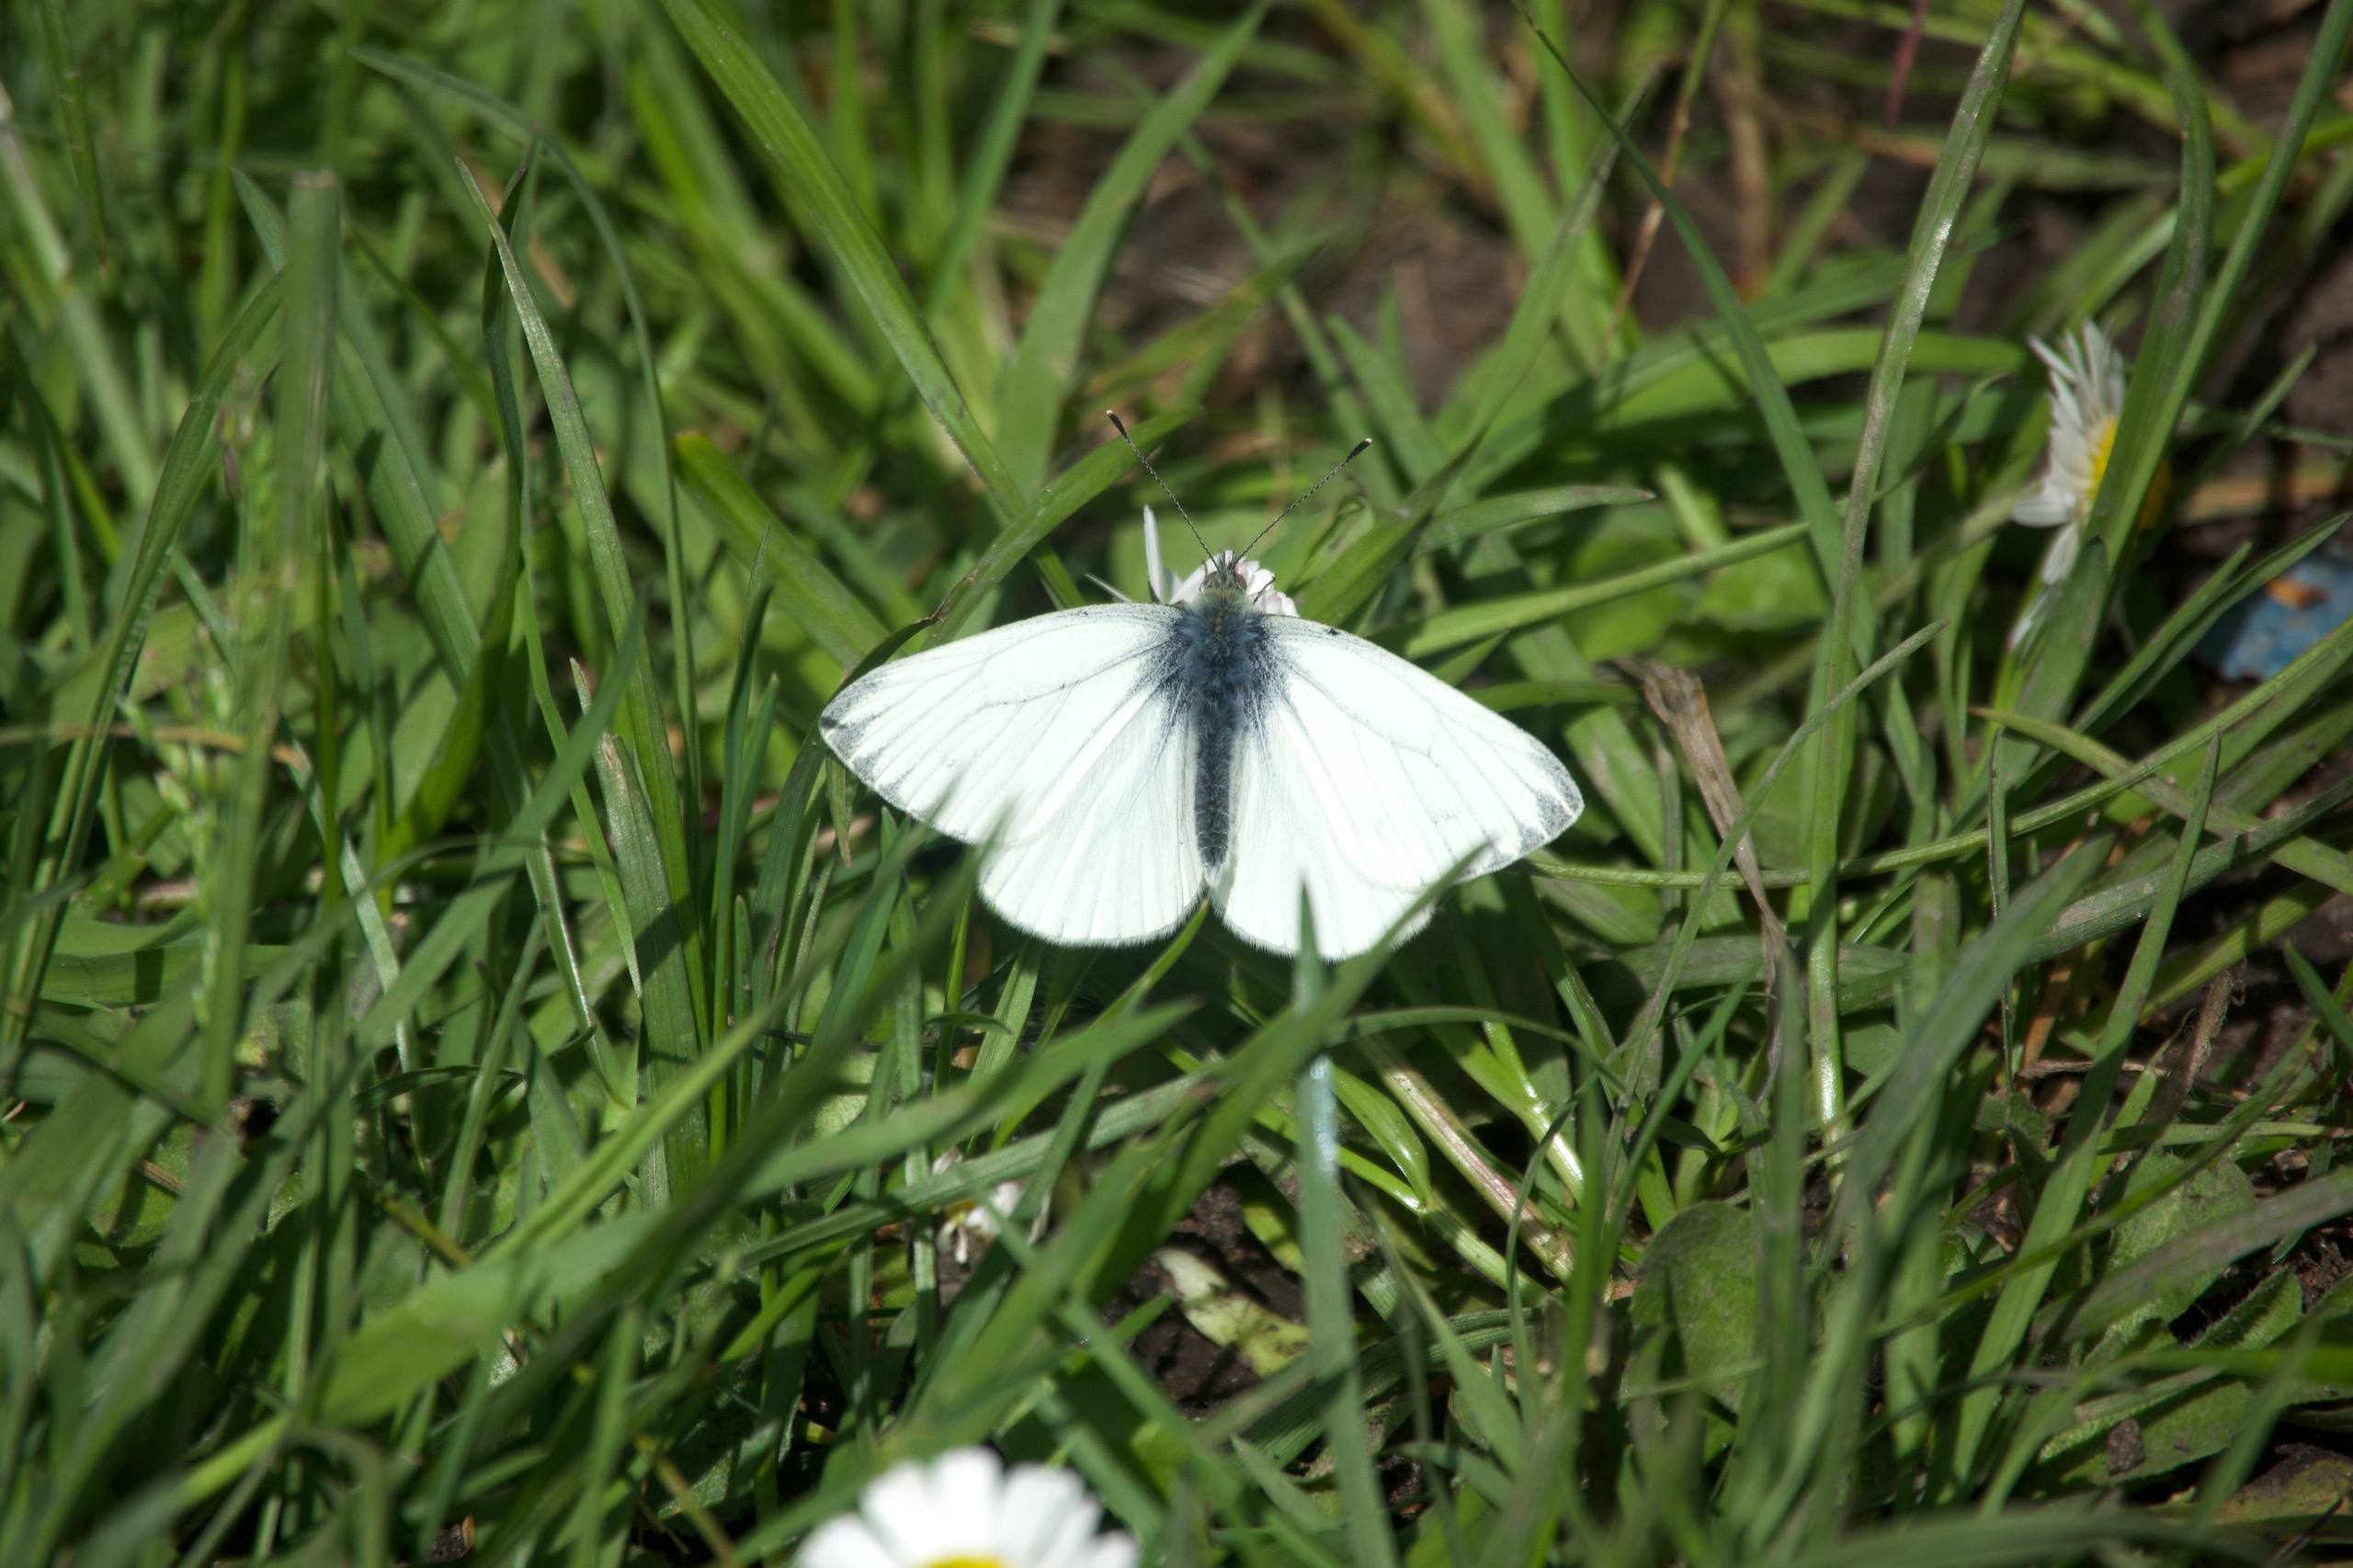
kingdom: Animalia
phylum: Arthropoda
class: Insecta
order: Lepidoptera
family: Pieridae
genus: Pieris
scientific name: Pieris napi
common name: Grønåret kålsommerfugl
